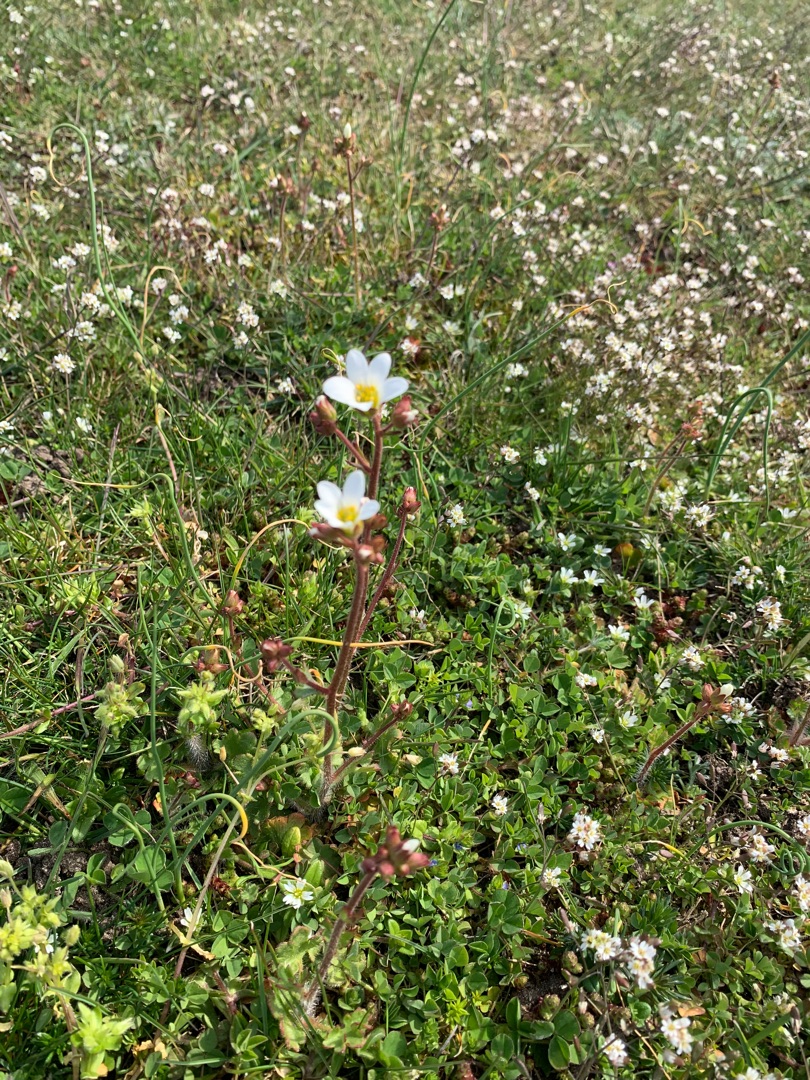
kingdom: Plantae
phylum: Tracheophyta
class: Magnoliopsida
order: Saxifragales
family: Saxifragaceae
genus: Saxifraga
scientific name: Saxifraga granulata
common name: Kornet stenbræk
